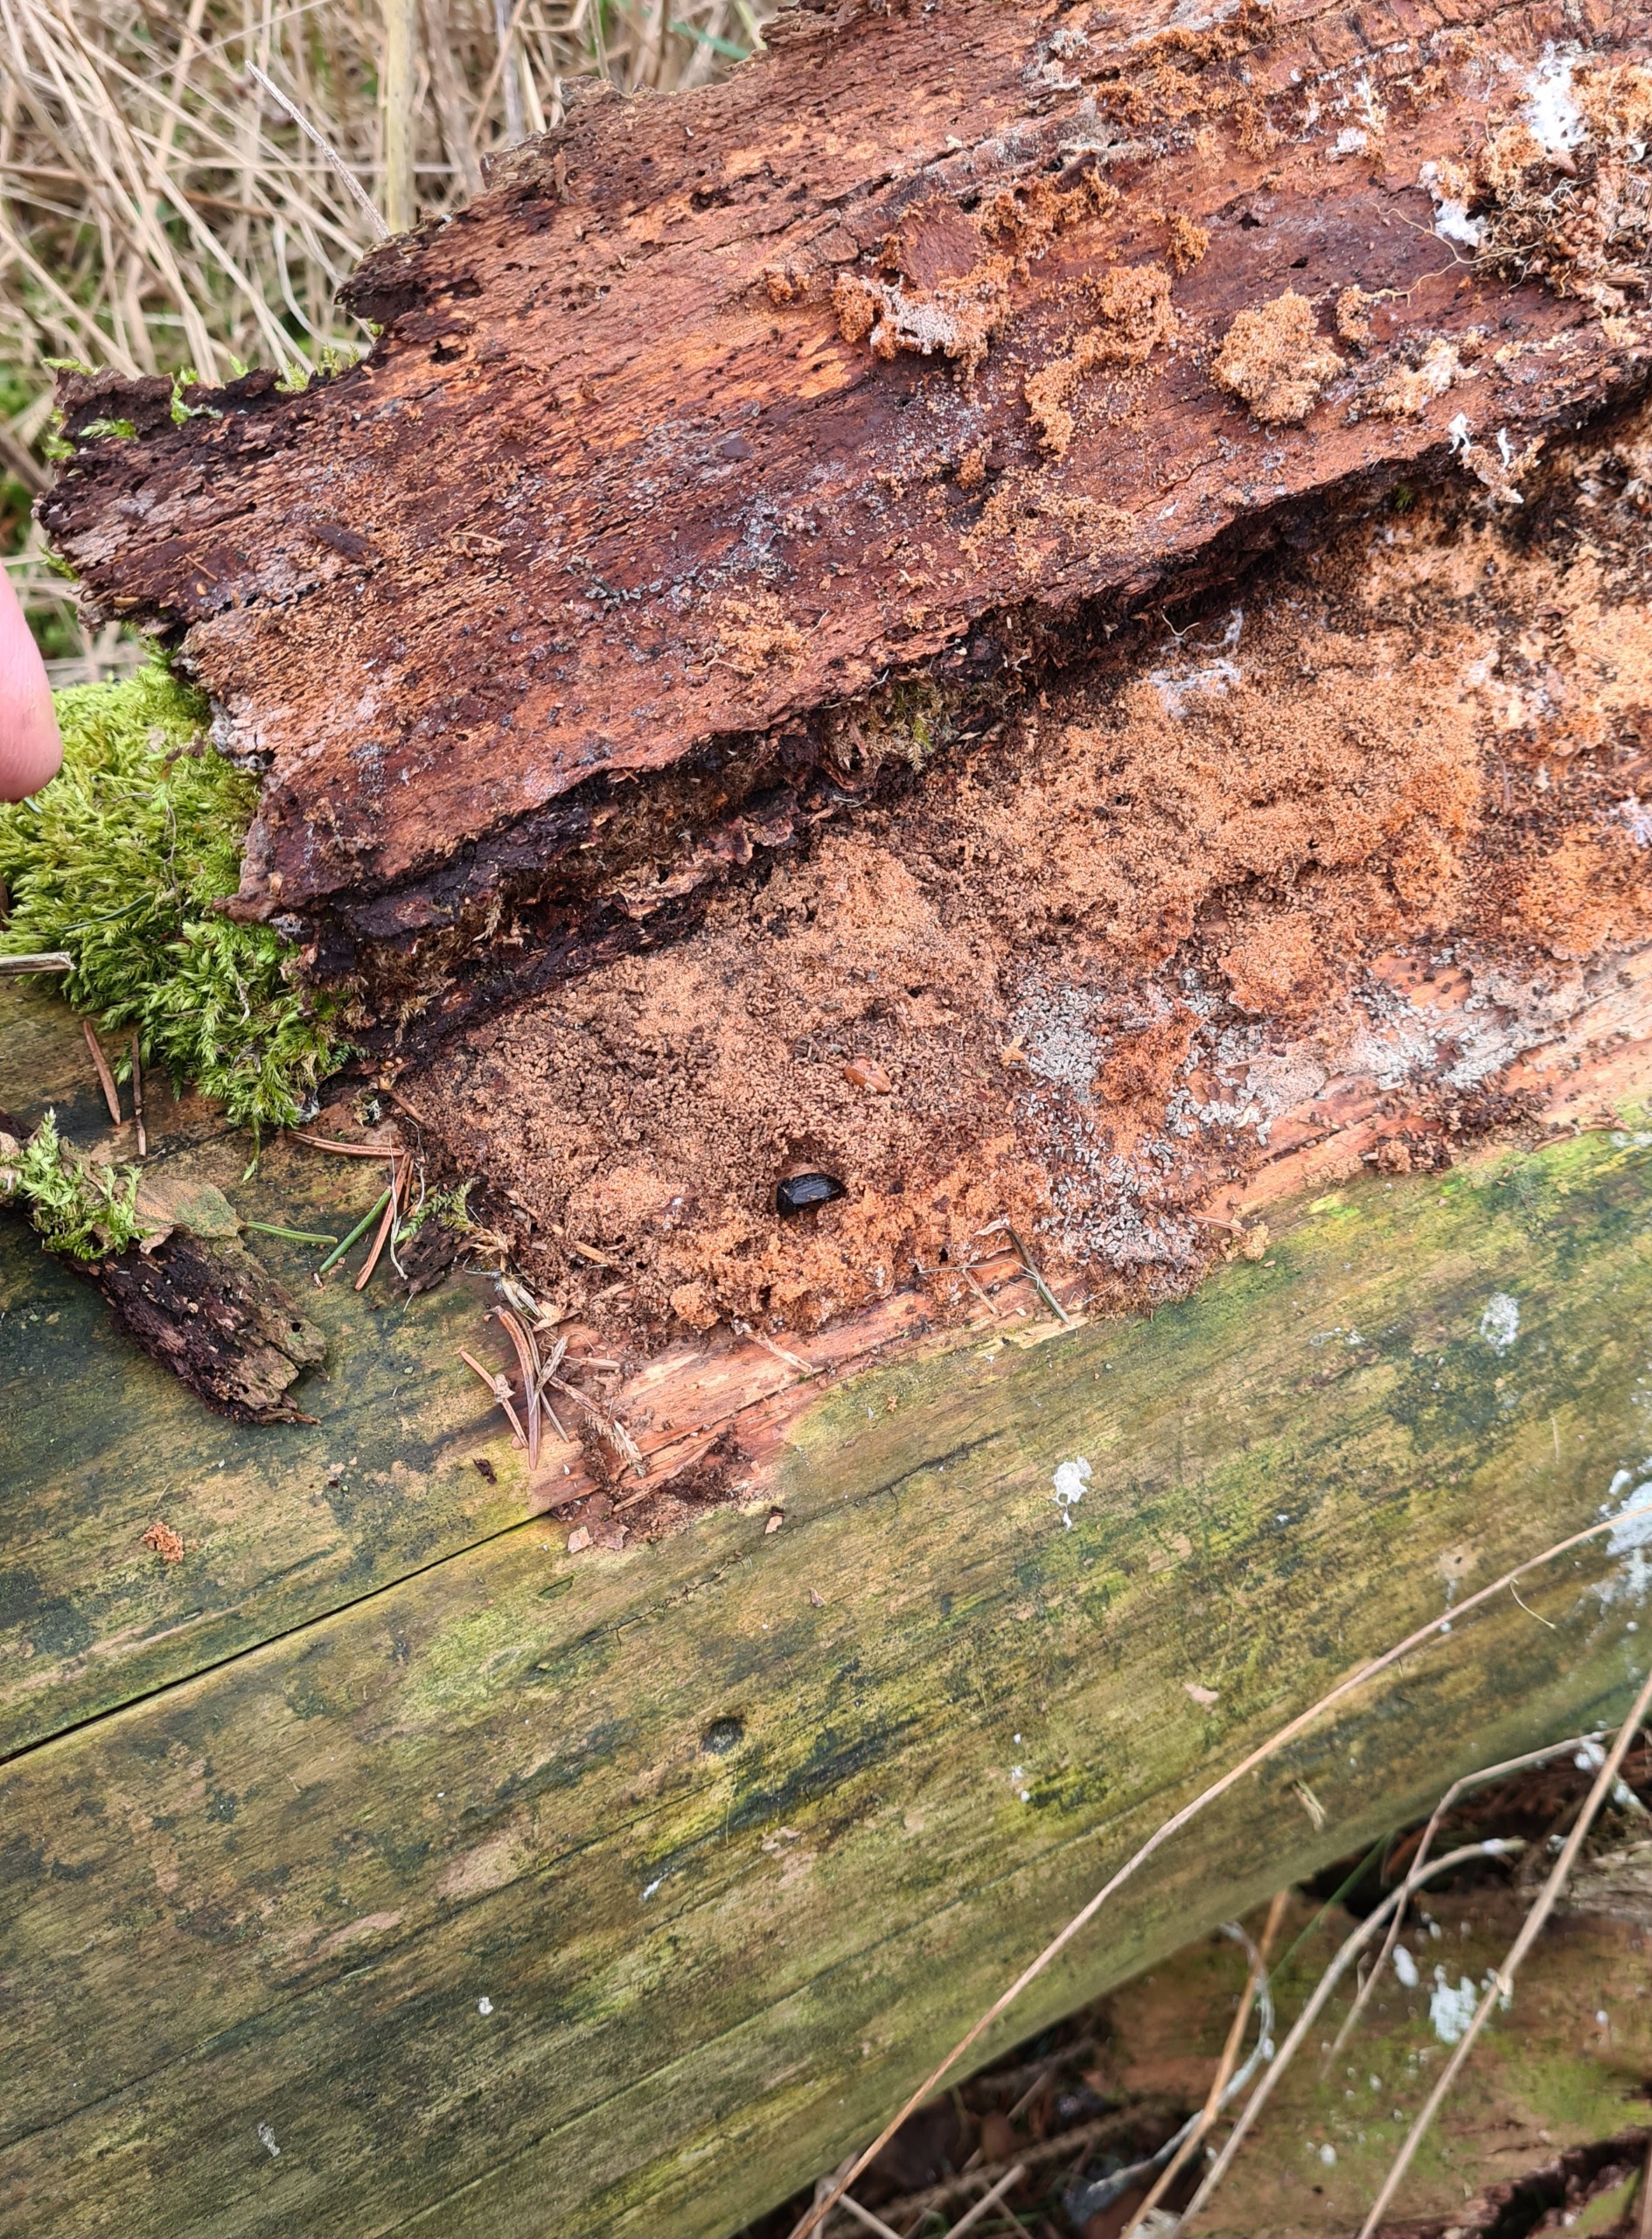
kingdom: Animalia
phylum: Arthropoda
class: Insecta
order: Coleoptera
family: Staphylinidae
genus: Silpha
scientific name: Silpha atrata
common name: Snegleådselbille
